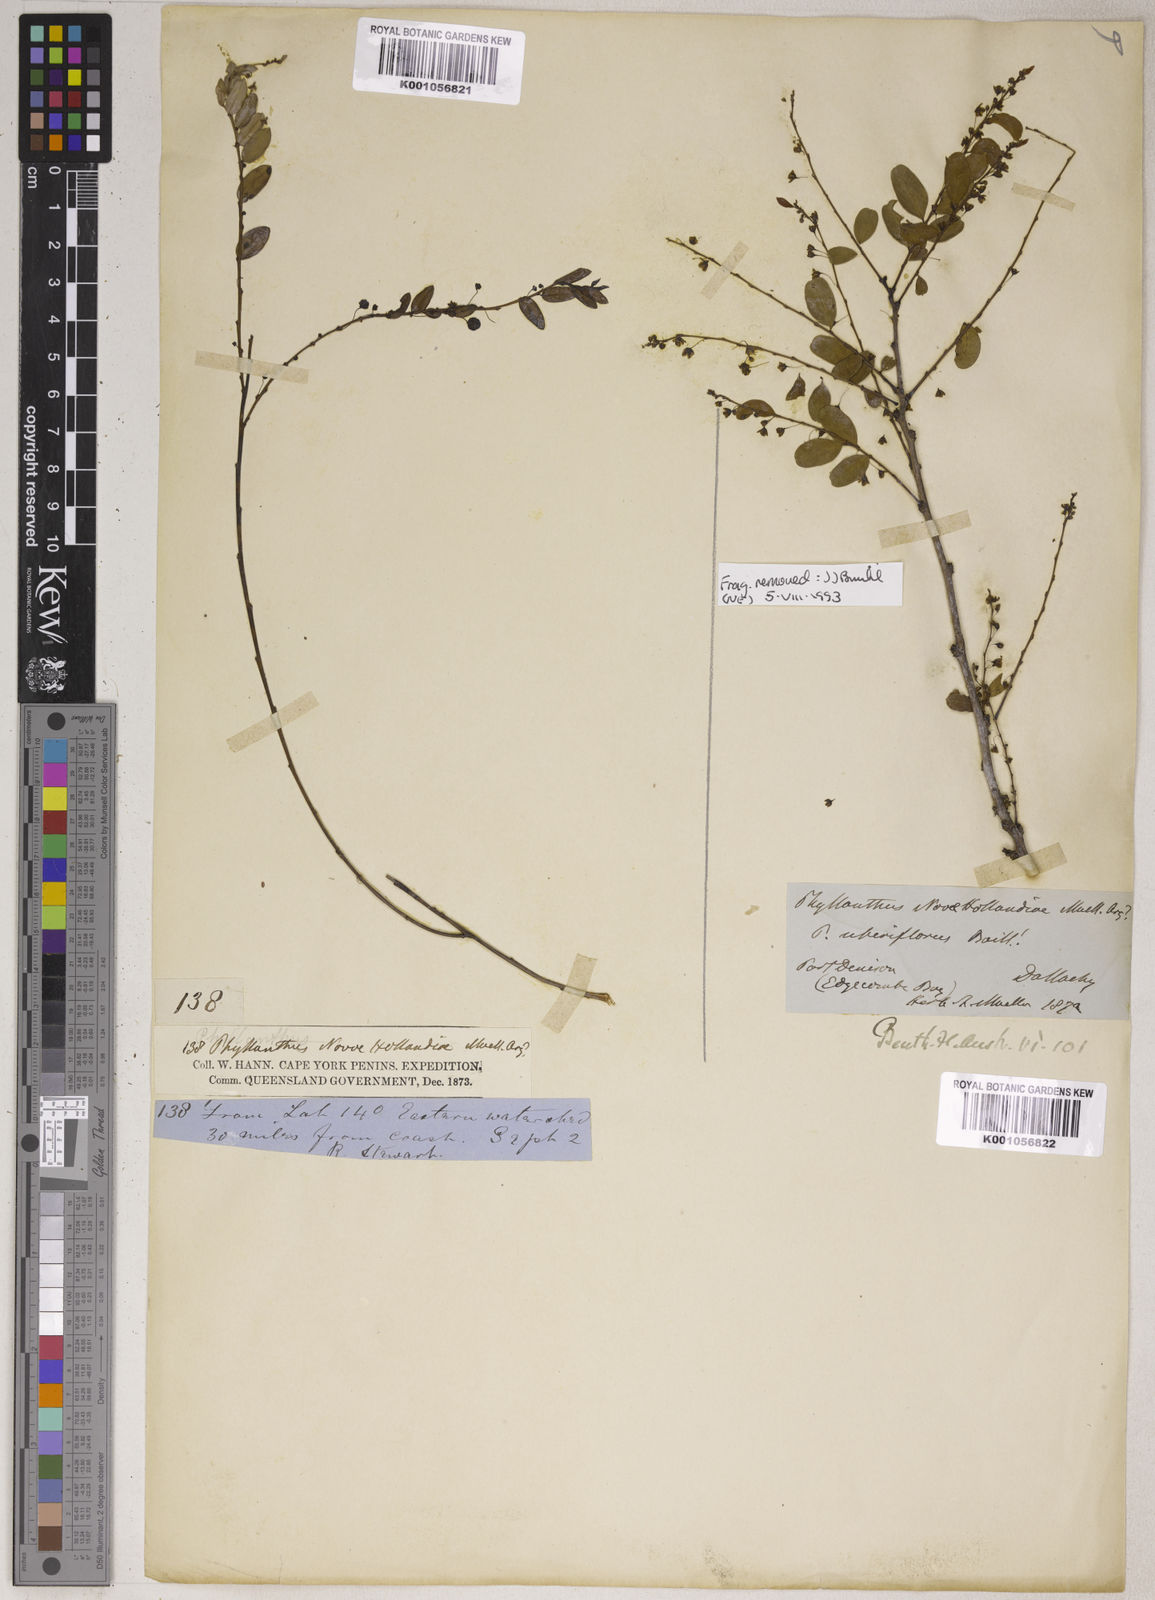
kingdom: Plantae
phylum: Tracheophyta
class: Magnoliopsida
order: Malpighiales
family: Phyllanthaceae
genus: Phyllanthus
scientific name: Phyllanthus
